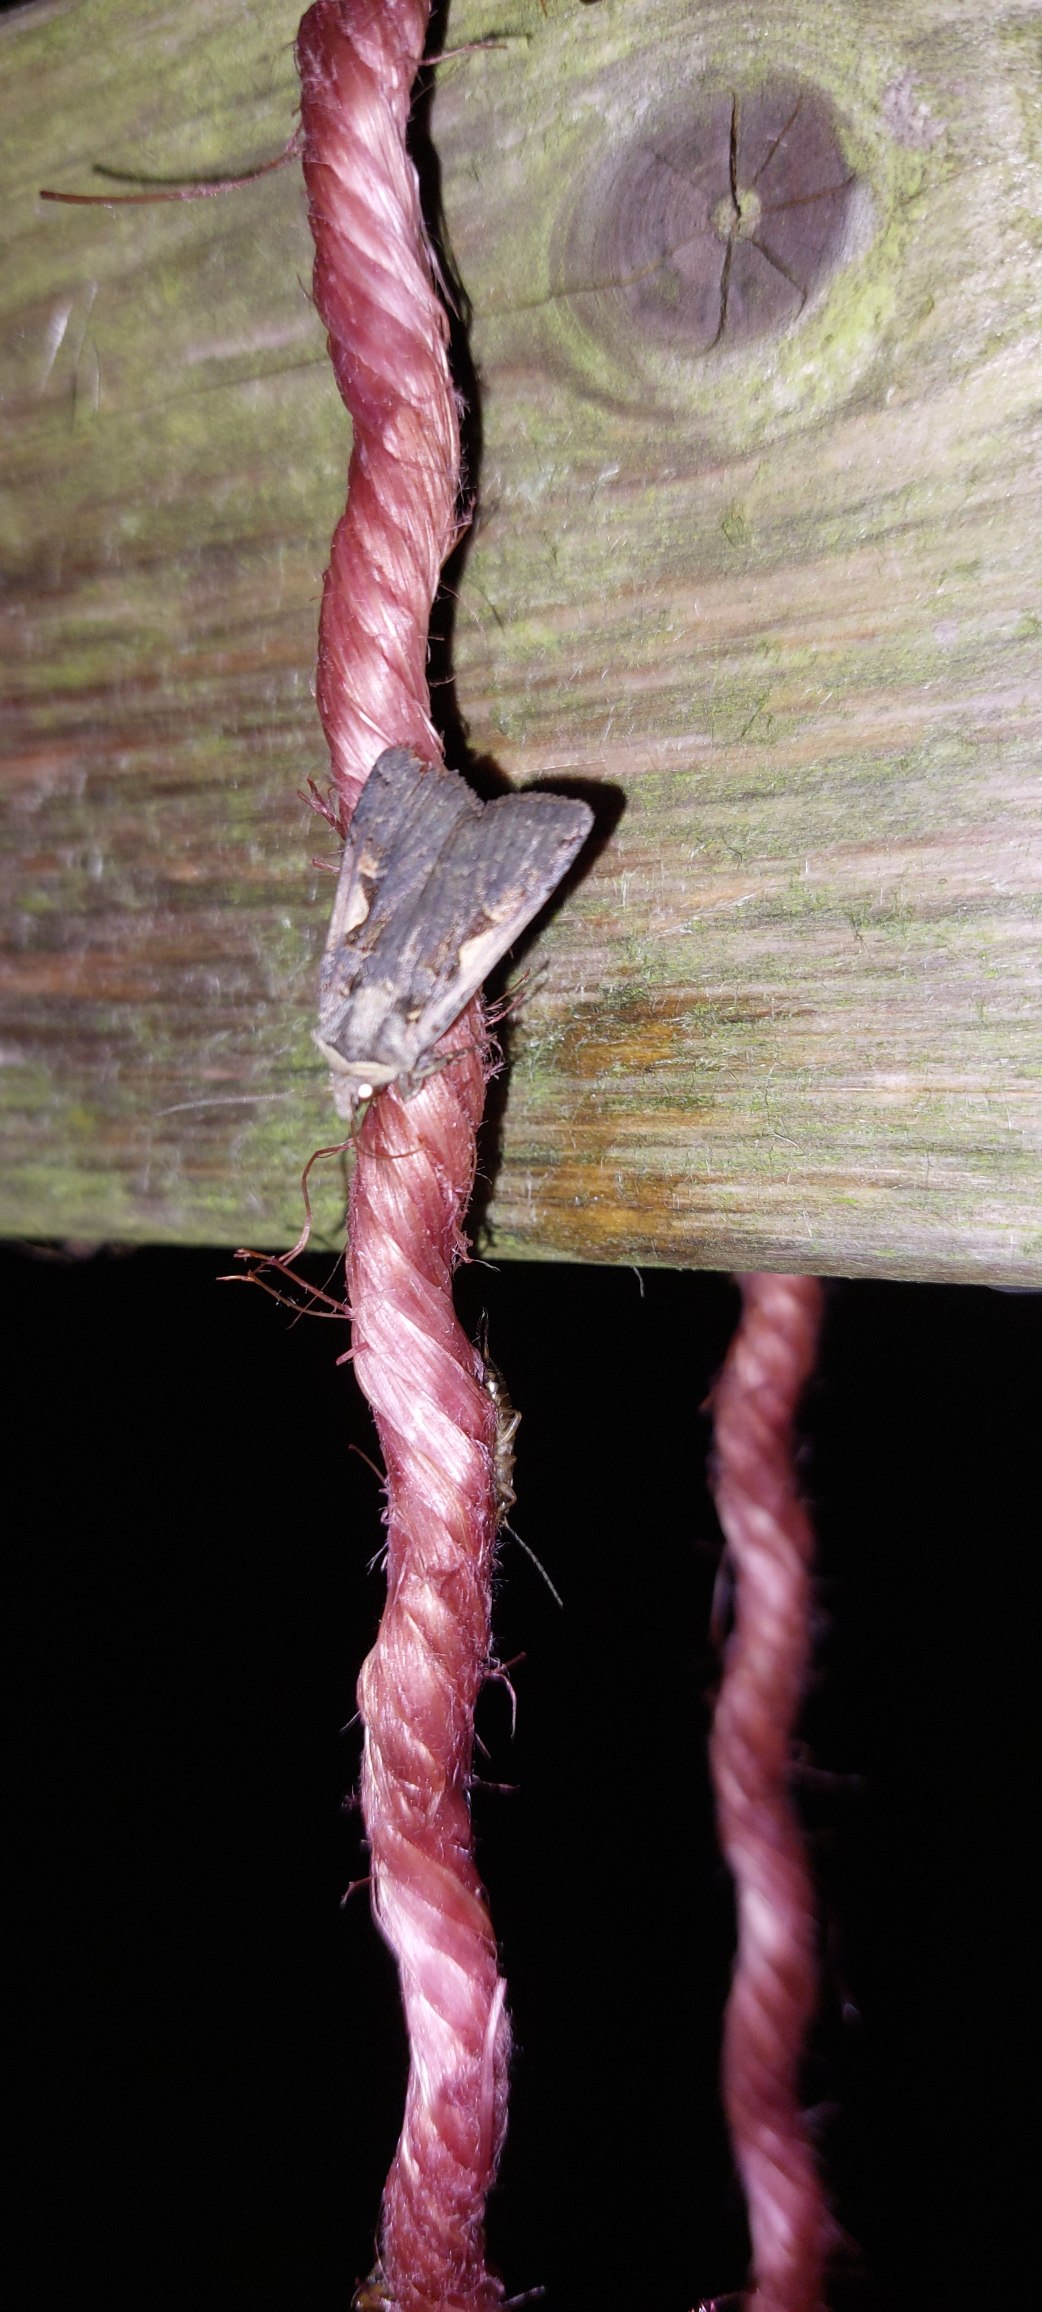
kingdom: Animalia
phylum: Arthropoda
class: Insecta
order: Lepidoptera
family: Noctuidae
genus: Xestia
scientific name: Xestia c-nigrum
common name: Det sorte c
